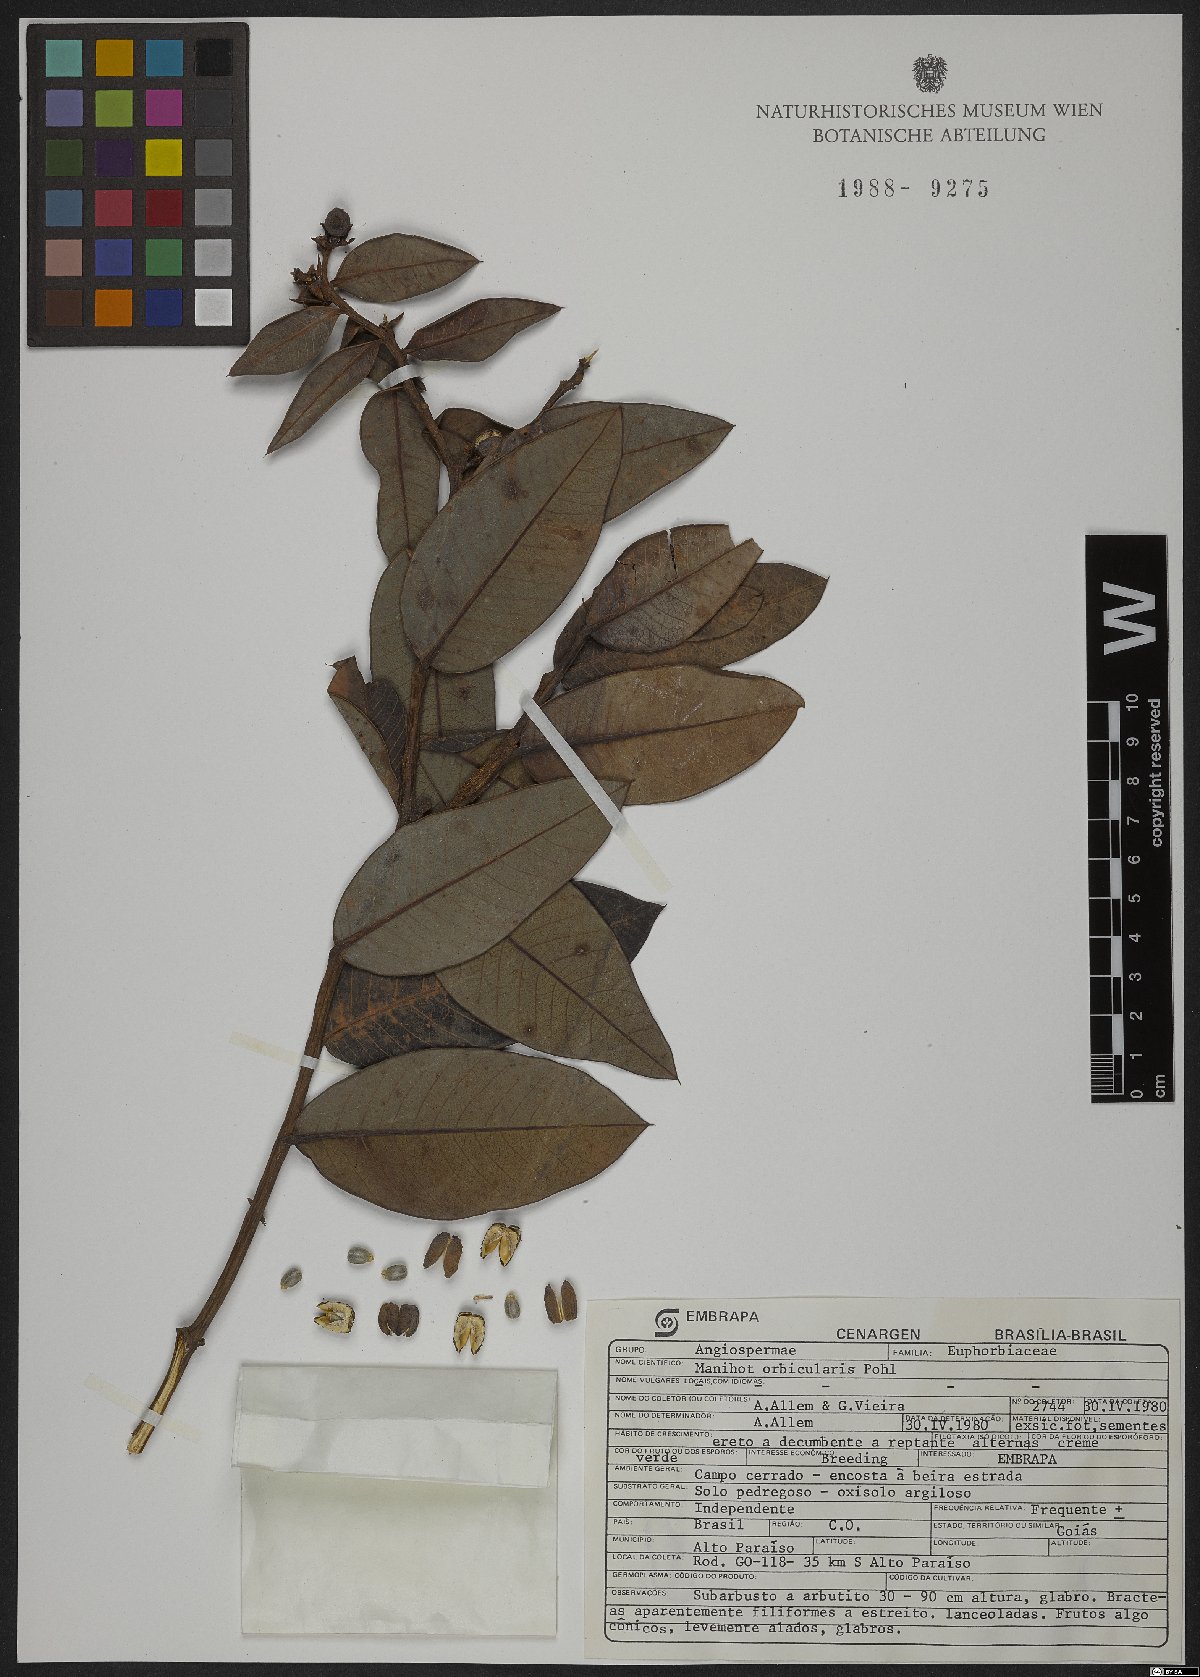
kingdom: Plantae
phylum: Tracheophyta
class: Magnoliopsida
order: Malpighiales
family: Euphorbiaceae
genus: Manihot
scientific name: Manihot orbicularis
